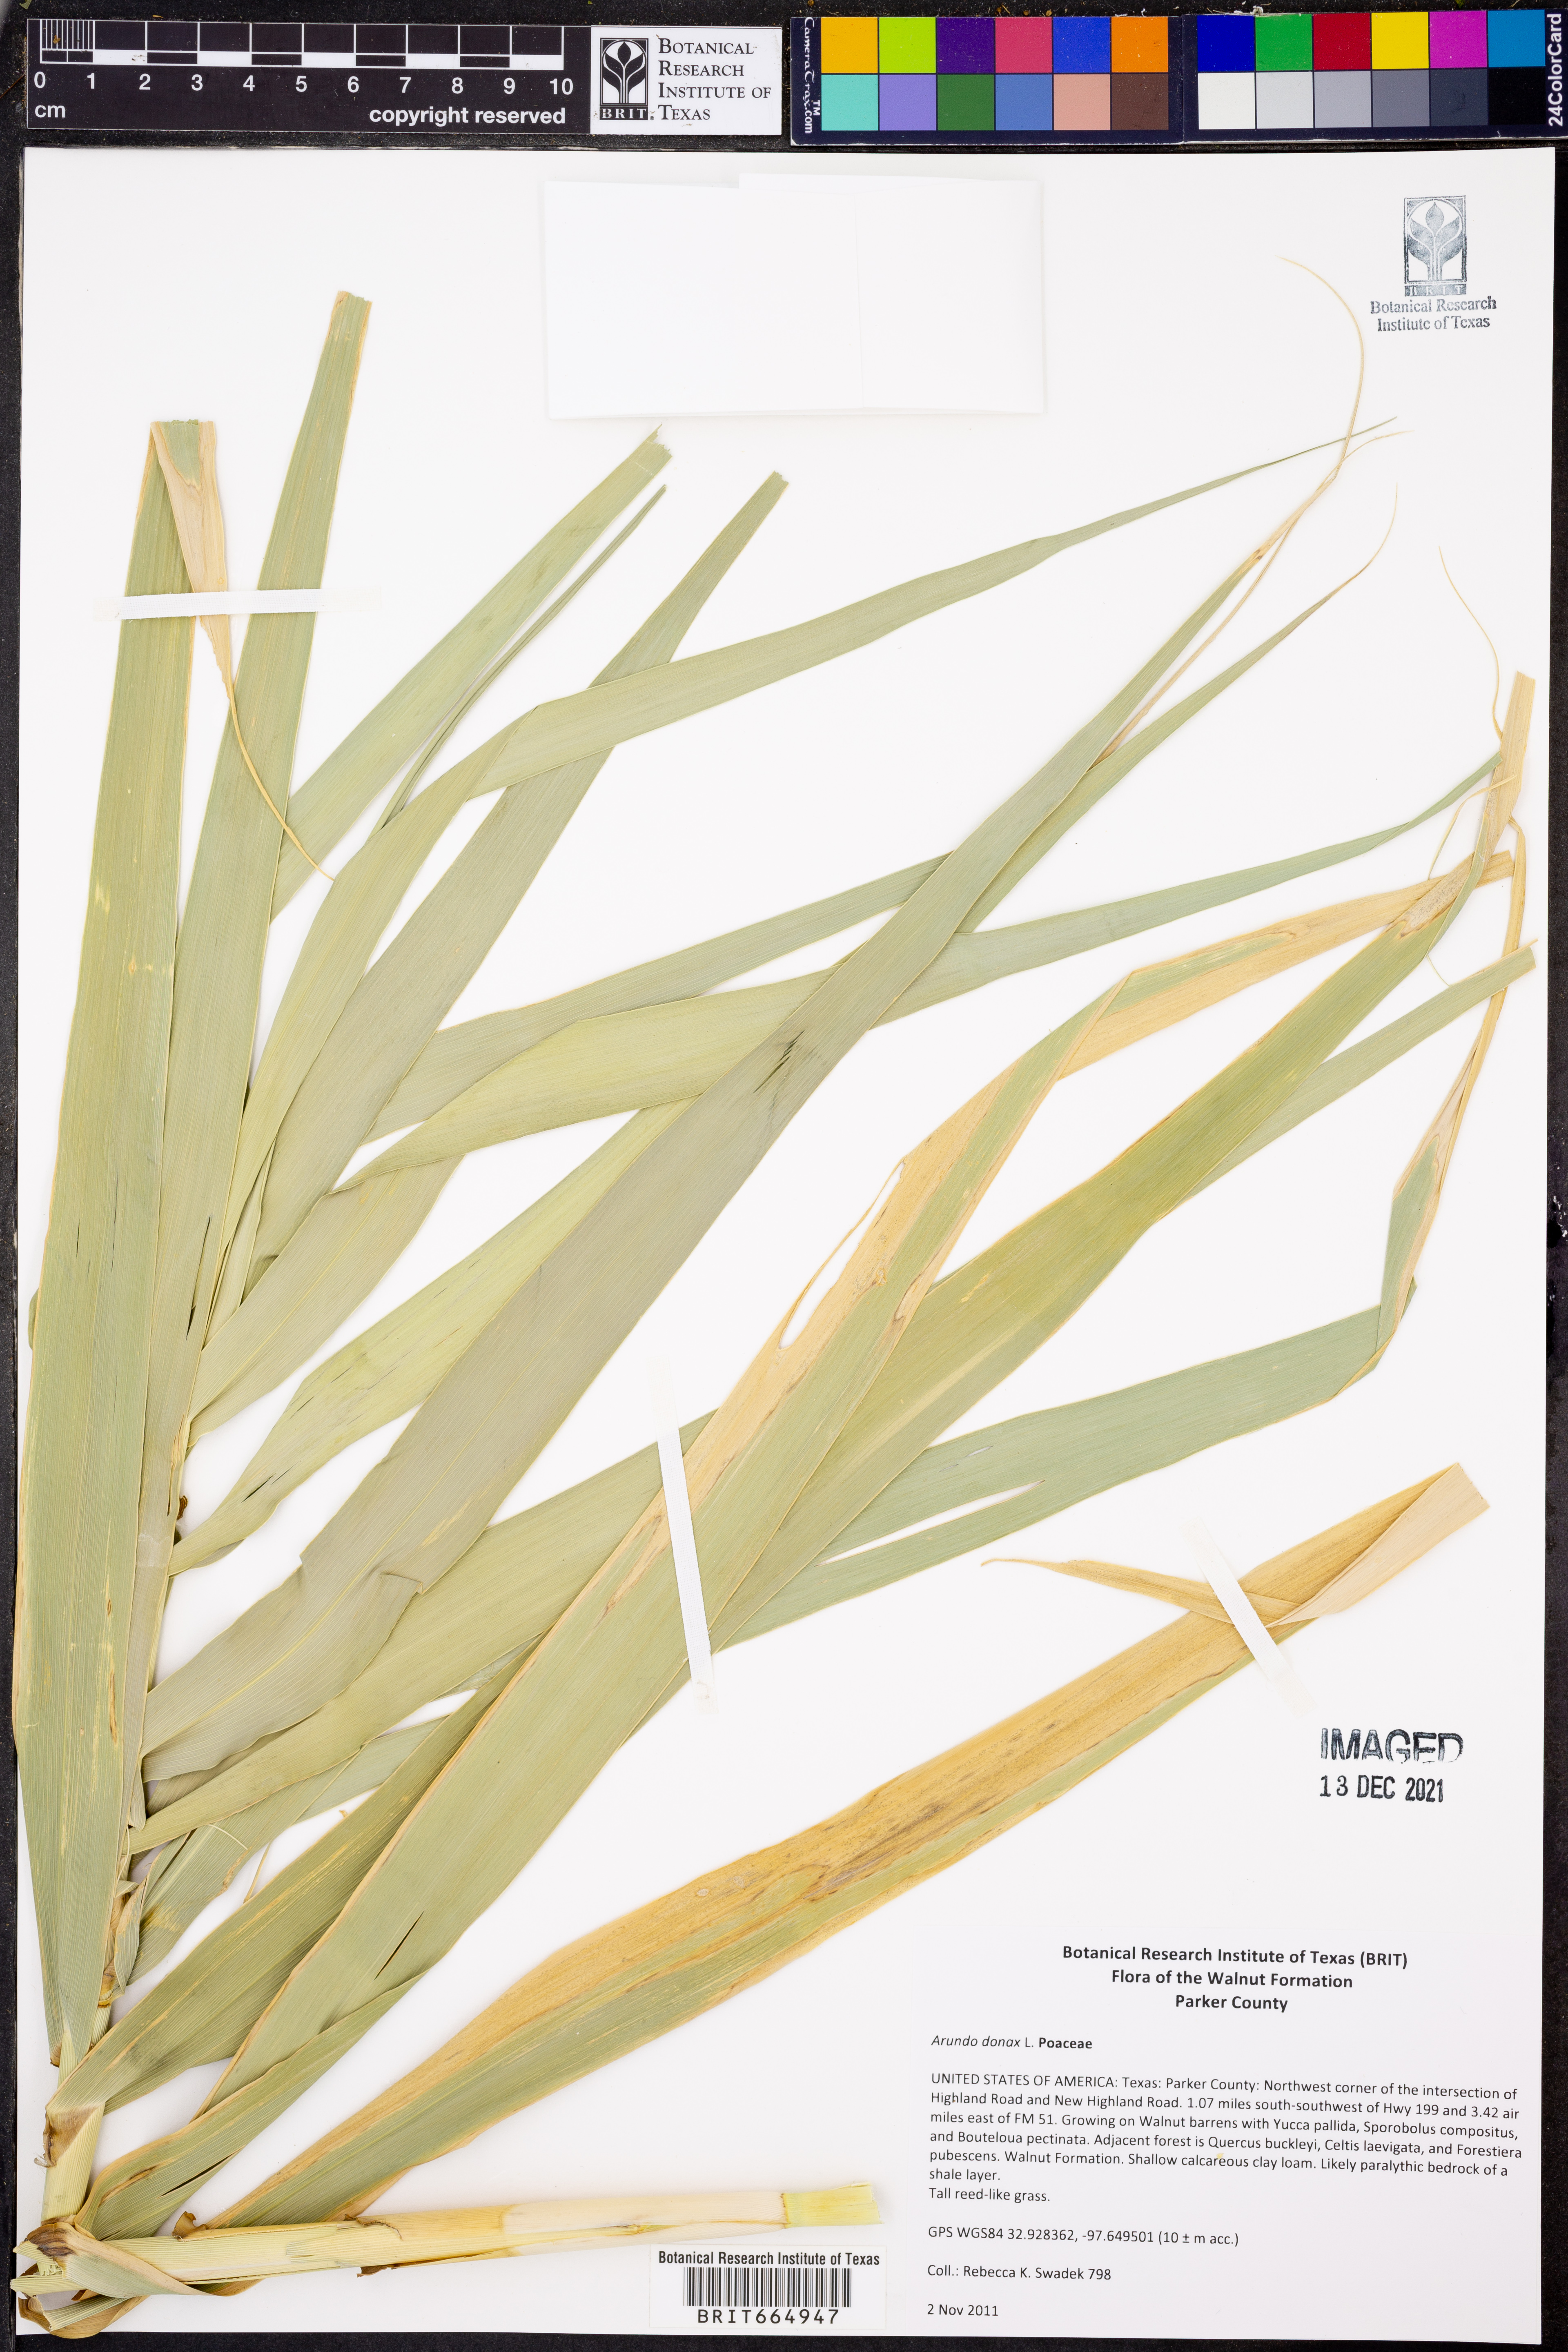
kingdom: Plantae
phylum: Tracheophyta
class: Liliopsida
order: Poales
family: Poaceae
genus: Arundo
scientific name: Arundo donax
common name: Giant reed
